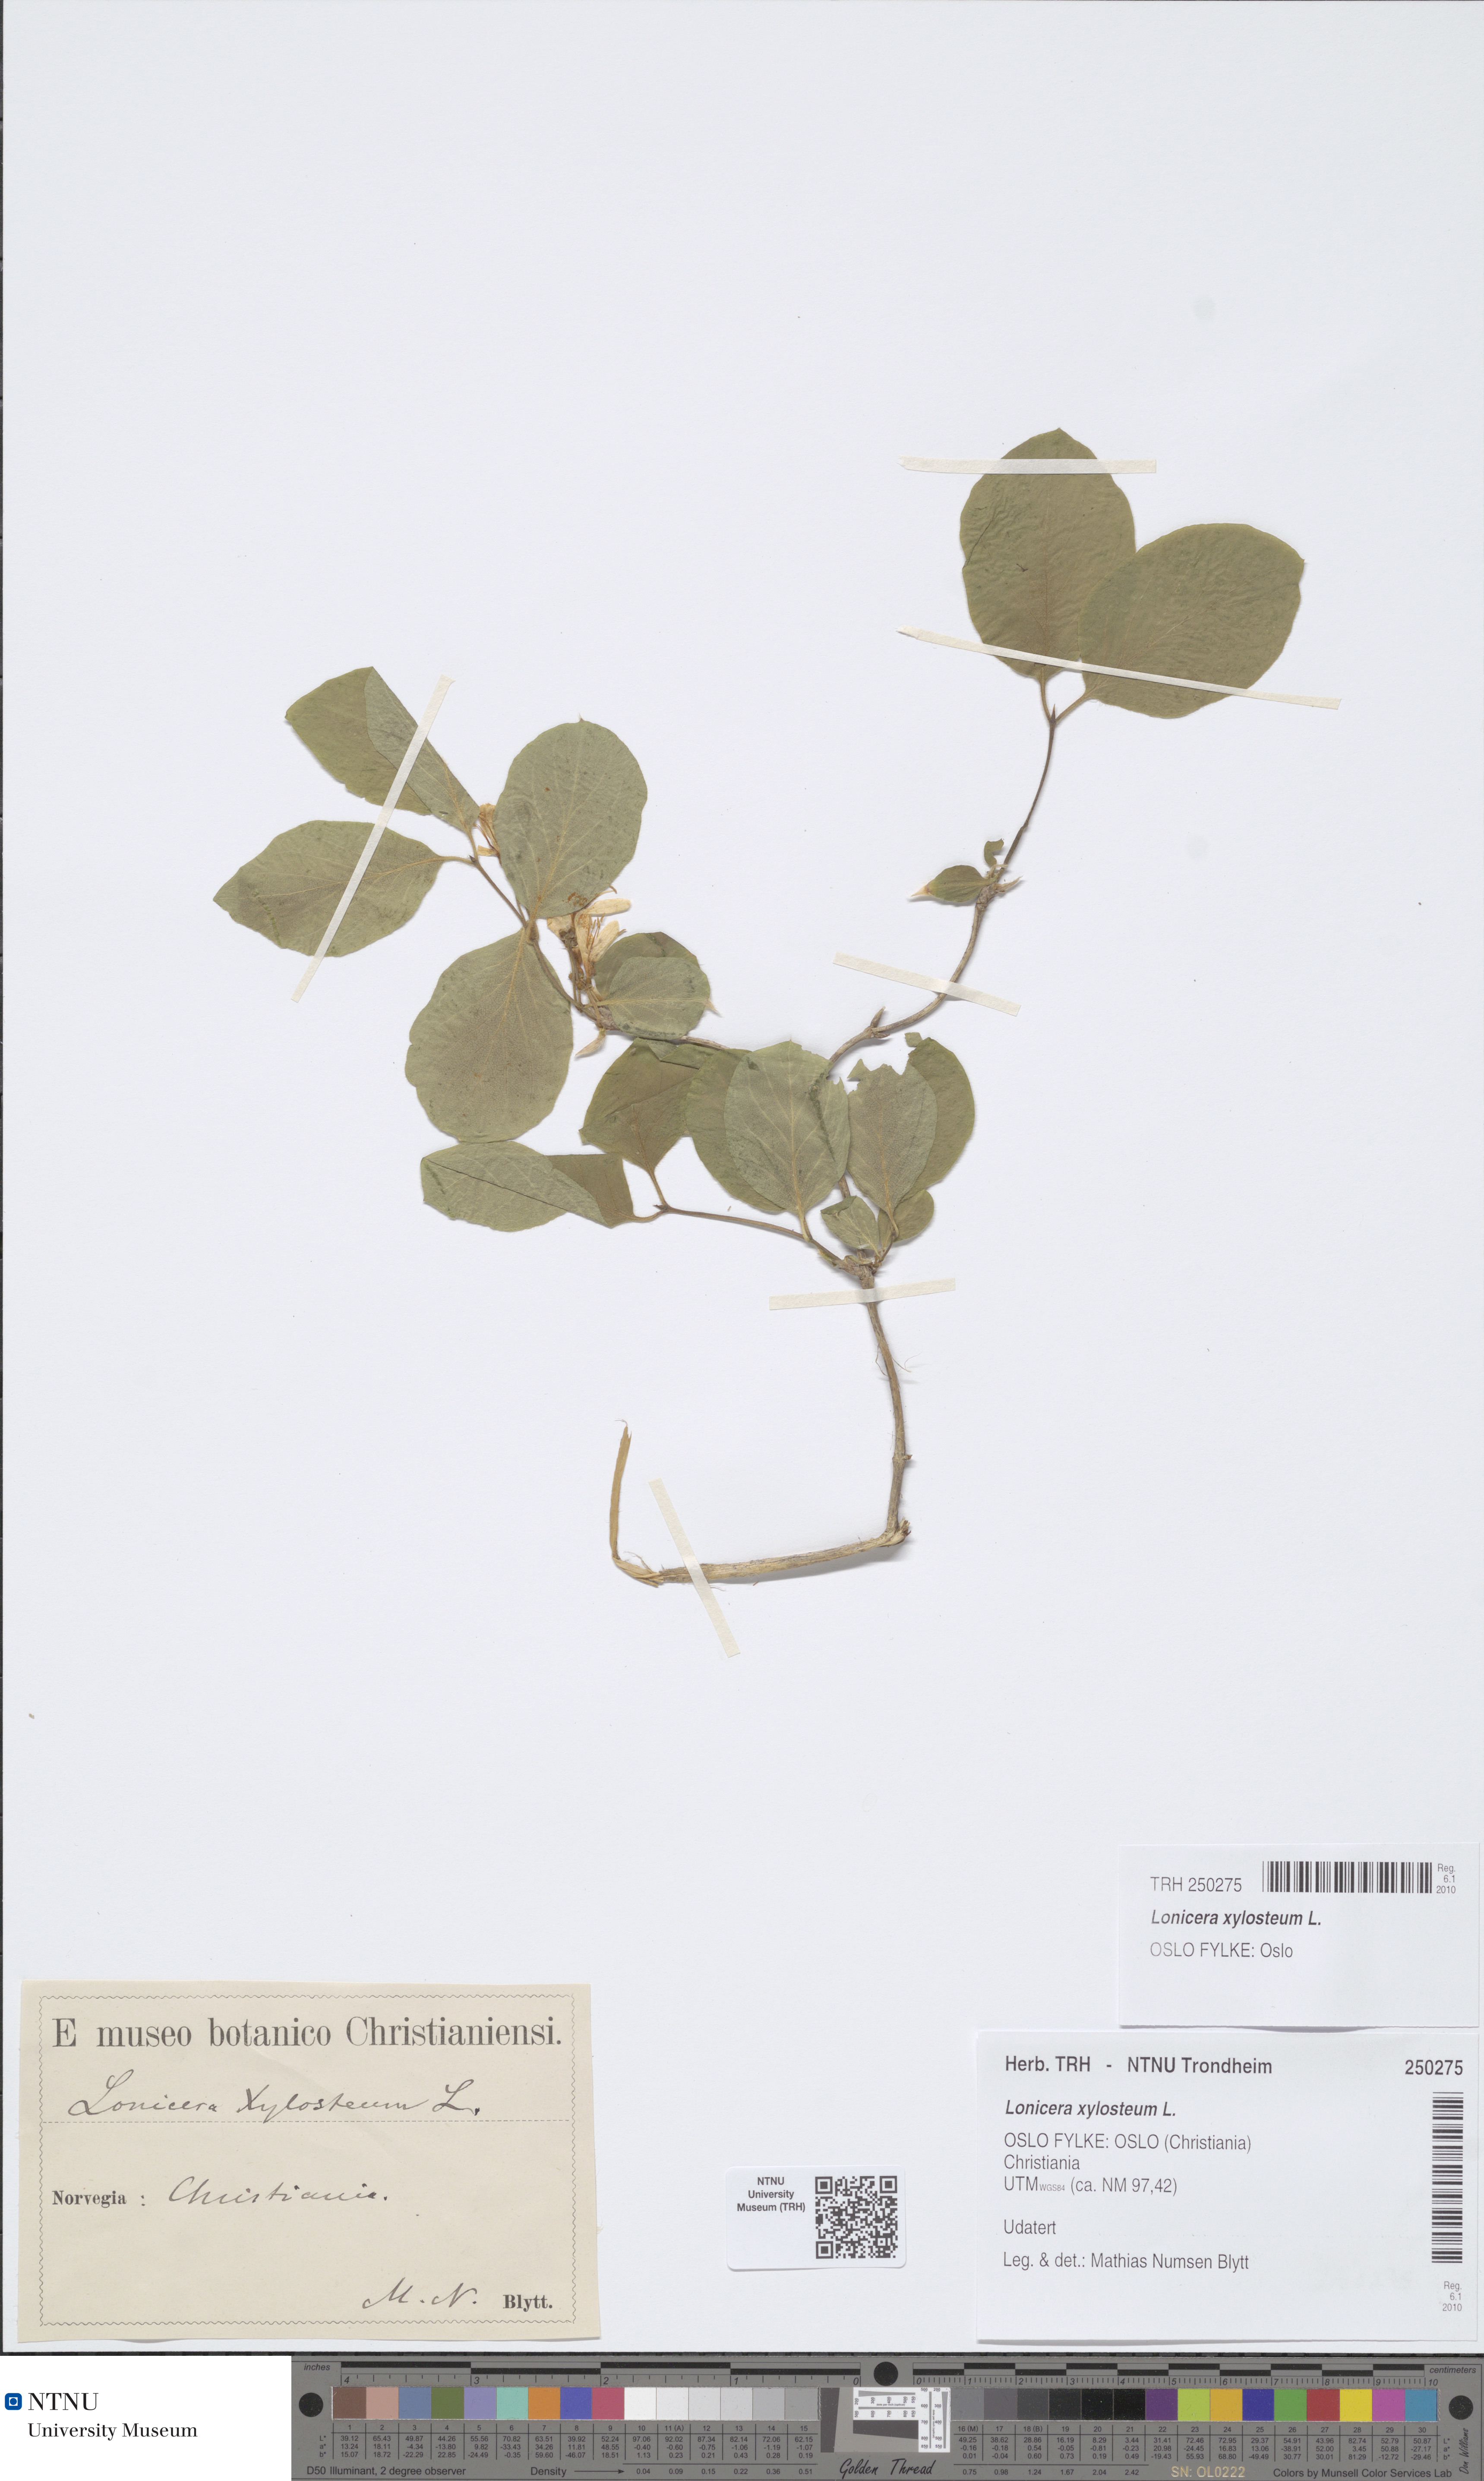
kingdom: Plantae
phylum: Tracheophyta
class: Magnoliopsida
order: Dipsacales
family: Caprifoliaceae
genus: Lonicera
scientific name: Lonicera xylosteum
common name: Fly honeysuckle
